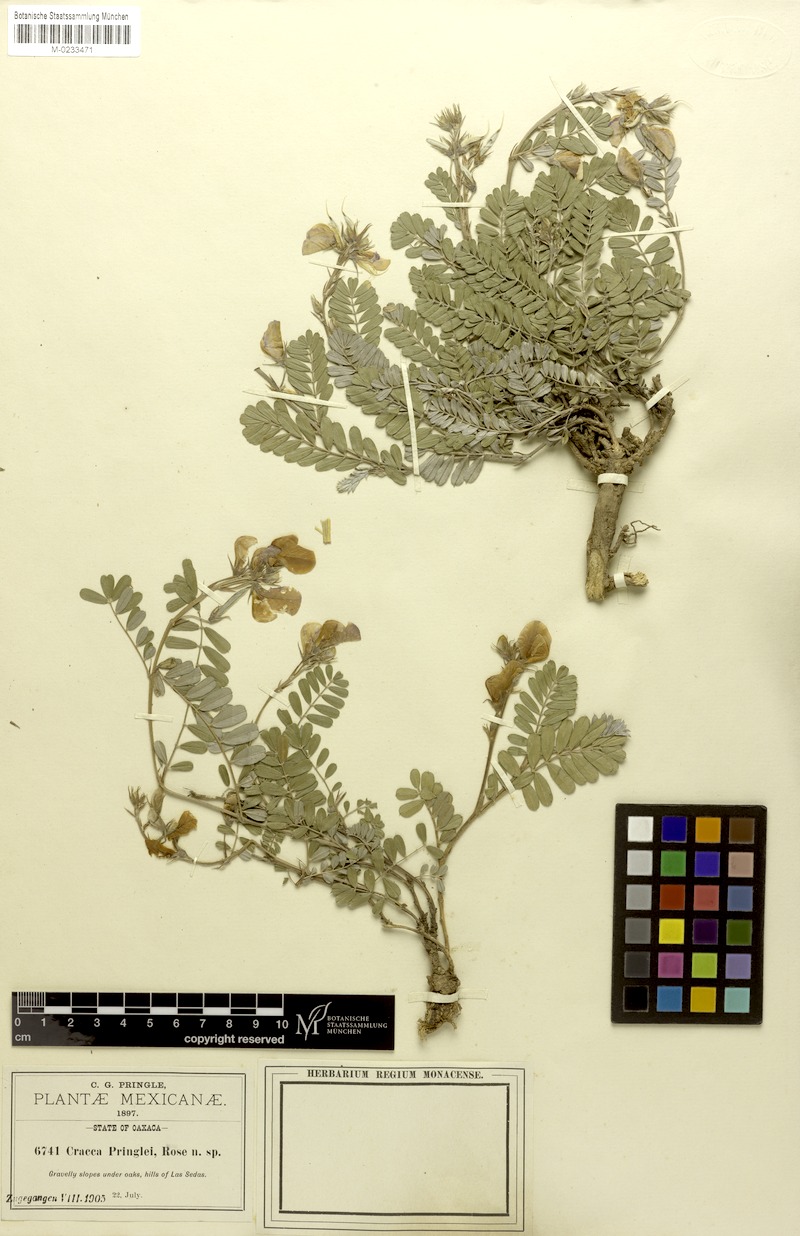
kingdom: Plantae
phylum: Tracheophyta
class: Magnoliopsida
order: Fabales
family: Fabaceae
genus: Tephrosia
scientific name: Tephrosia pringlei
